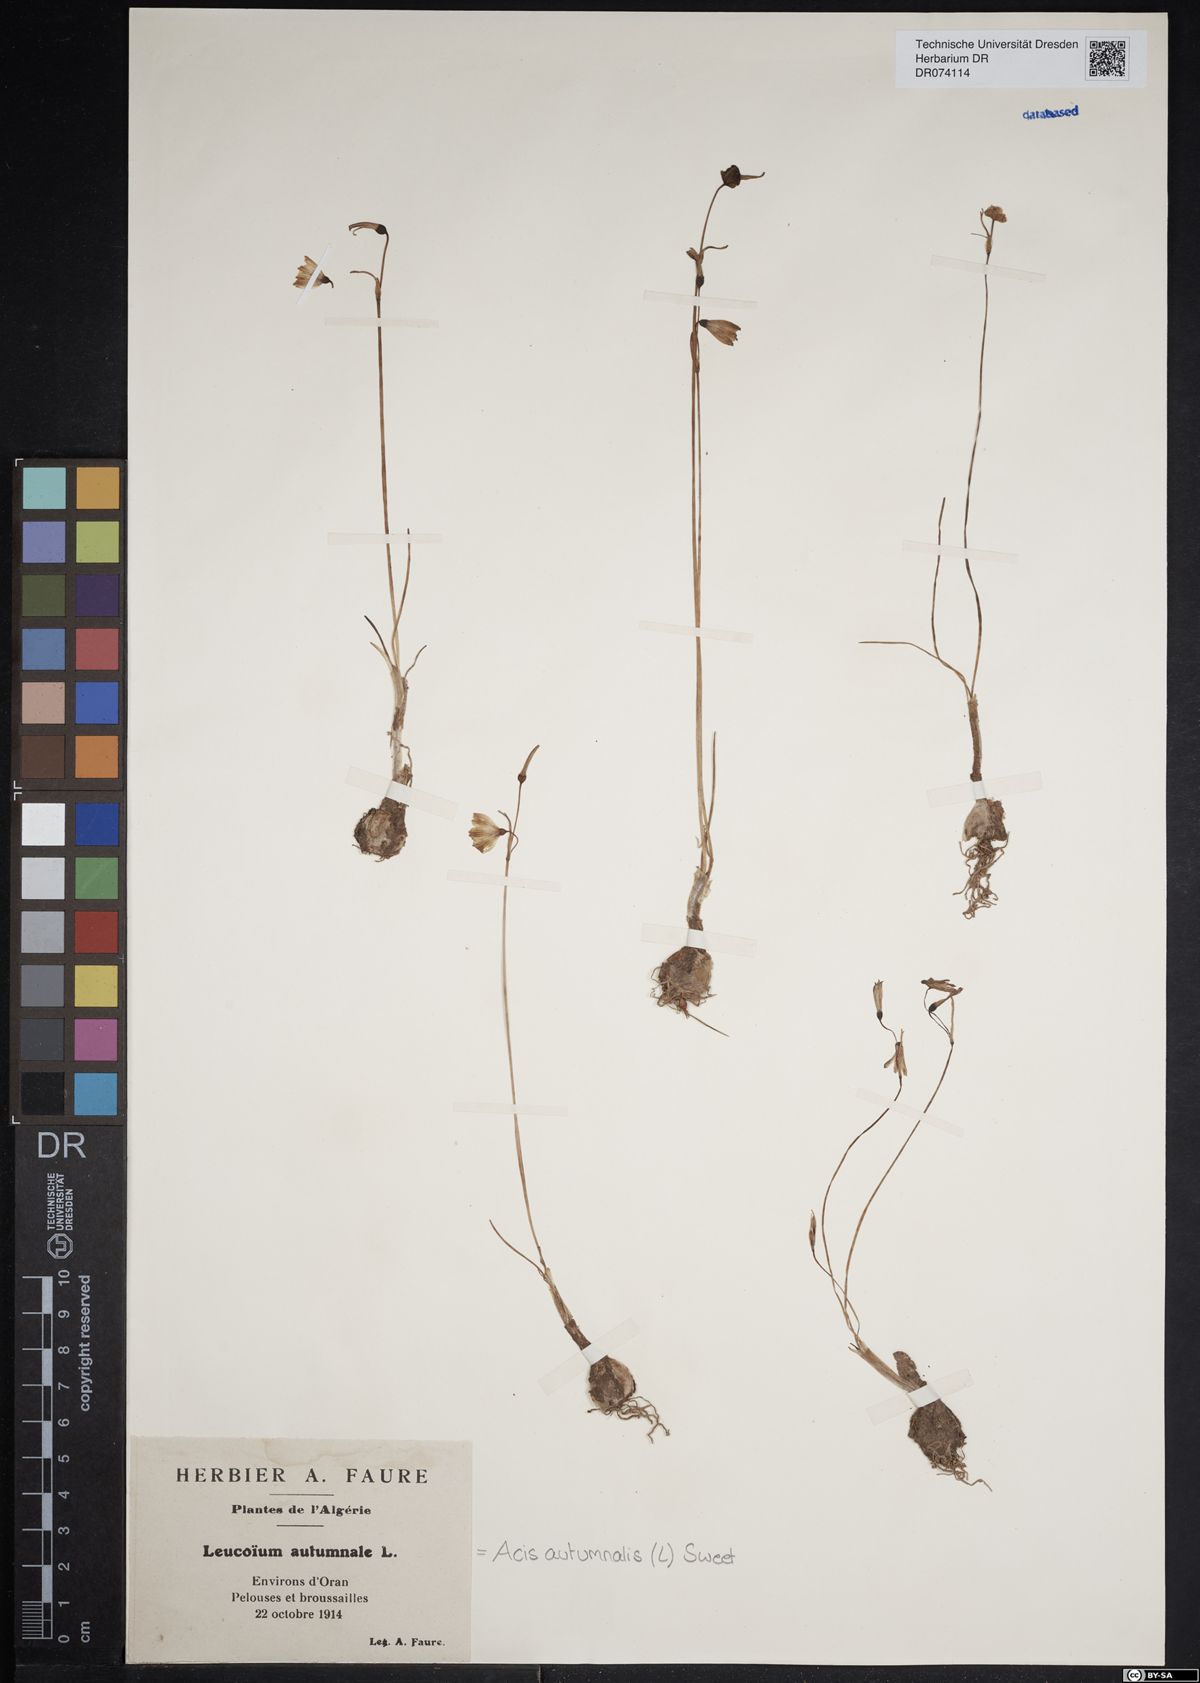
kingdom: Plantae
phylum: Tracheophyta
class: Liliopsida
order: Asparagales
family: Amaryllidaceae
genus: Acis
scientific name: Acis autumnalis
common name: Autumn snowflake
